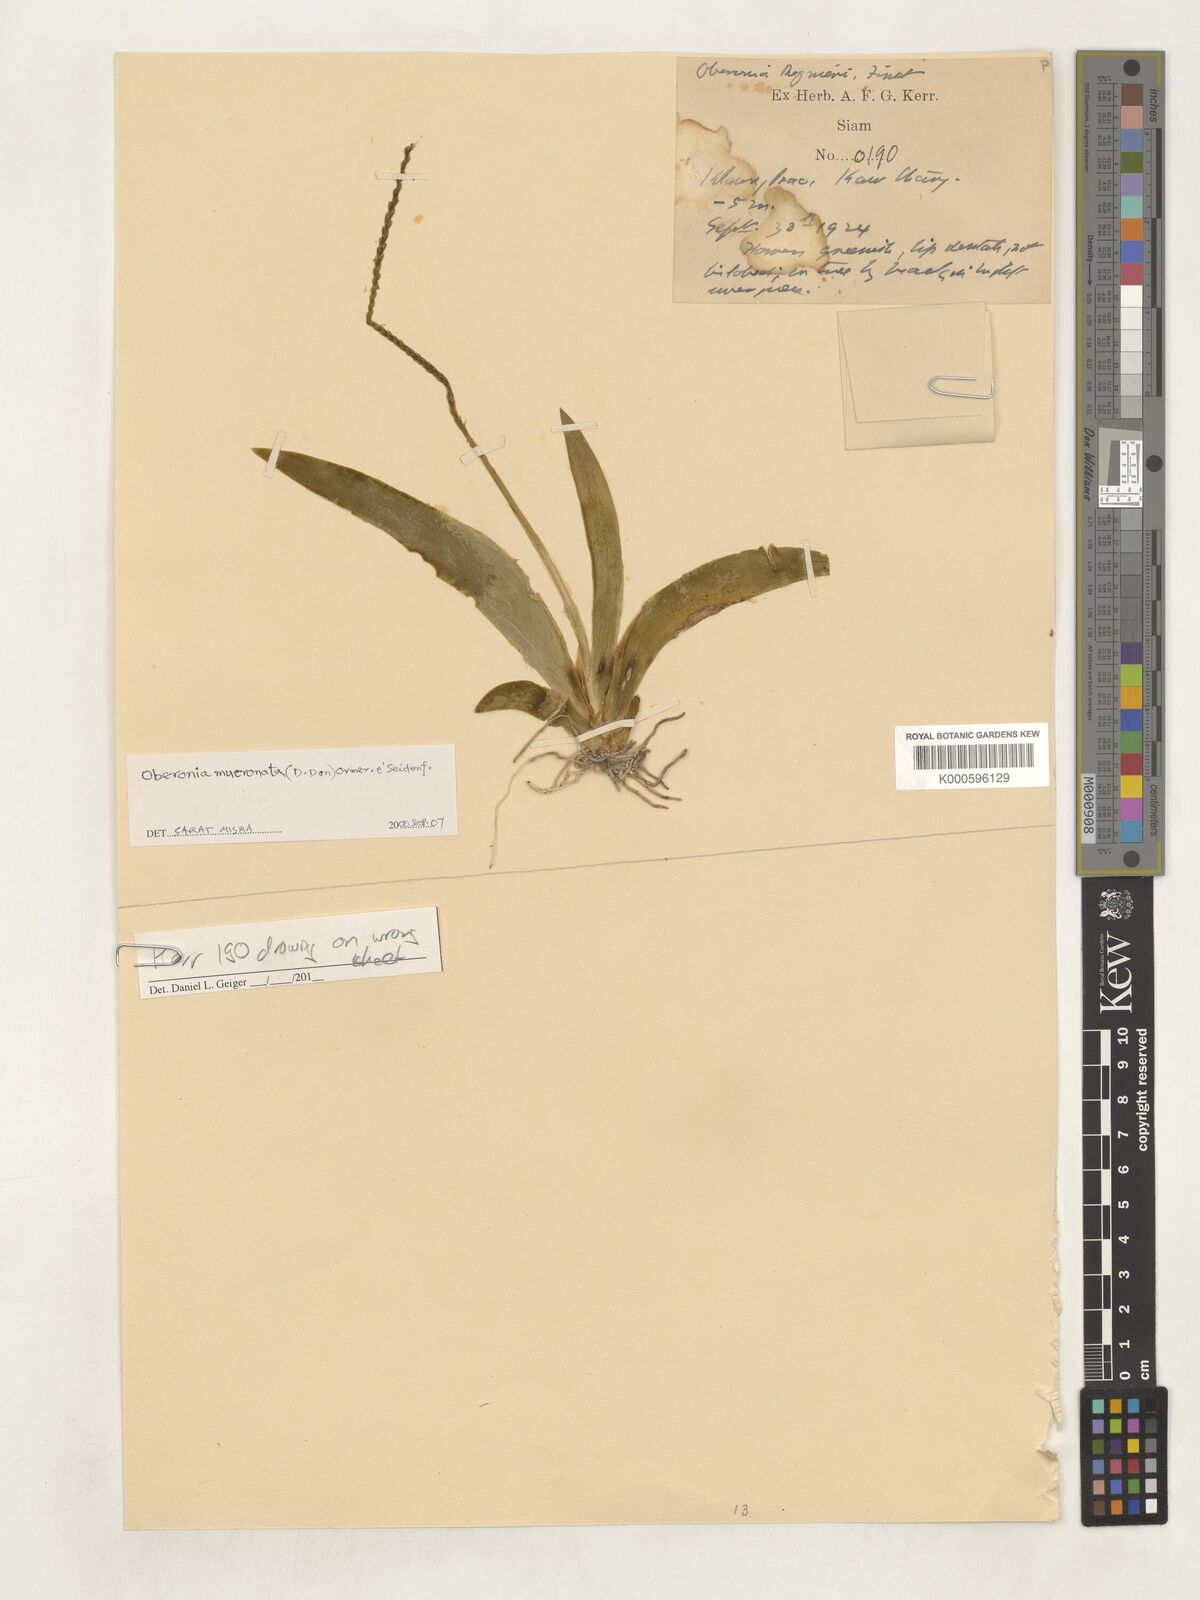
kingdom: Plantae
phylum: Tracheophyta
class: Liliopsida
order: Asparagales
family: Orchidaceae
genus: Oberonia
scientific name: Oberonia mucronata
